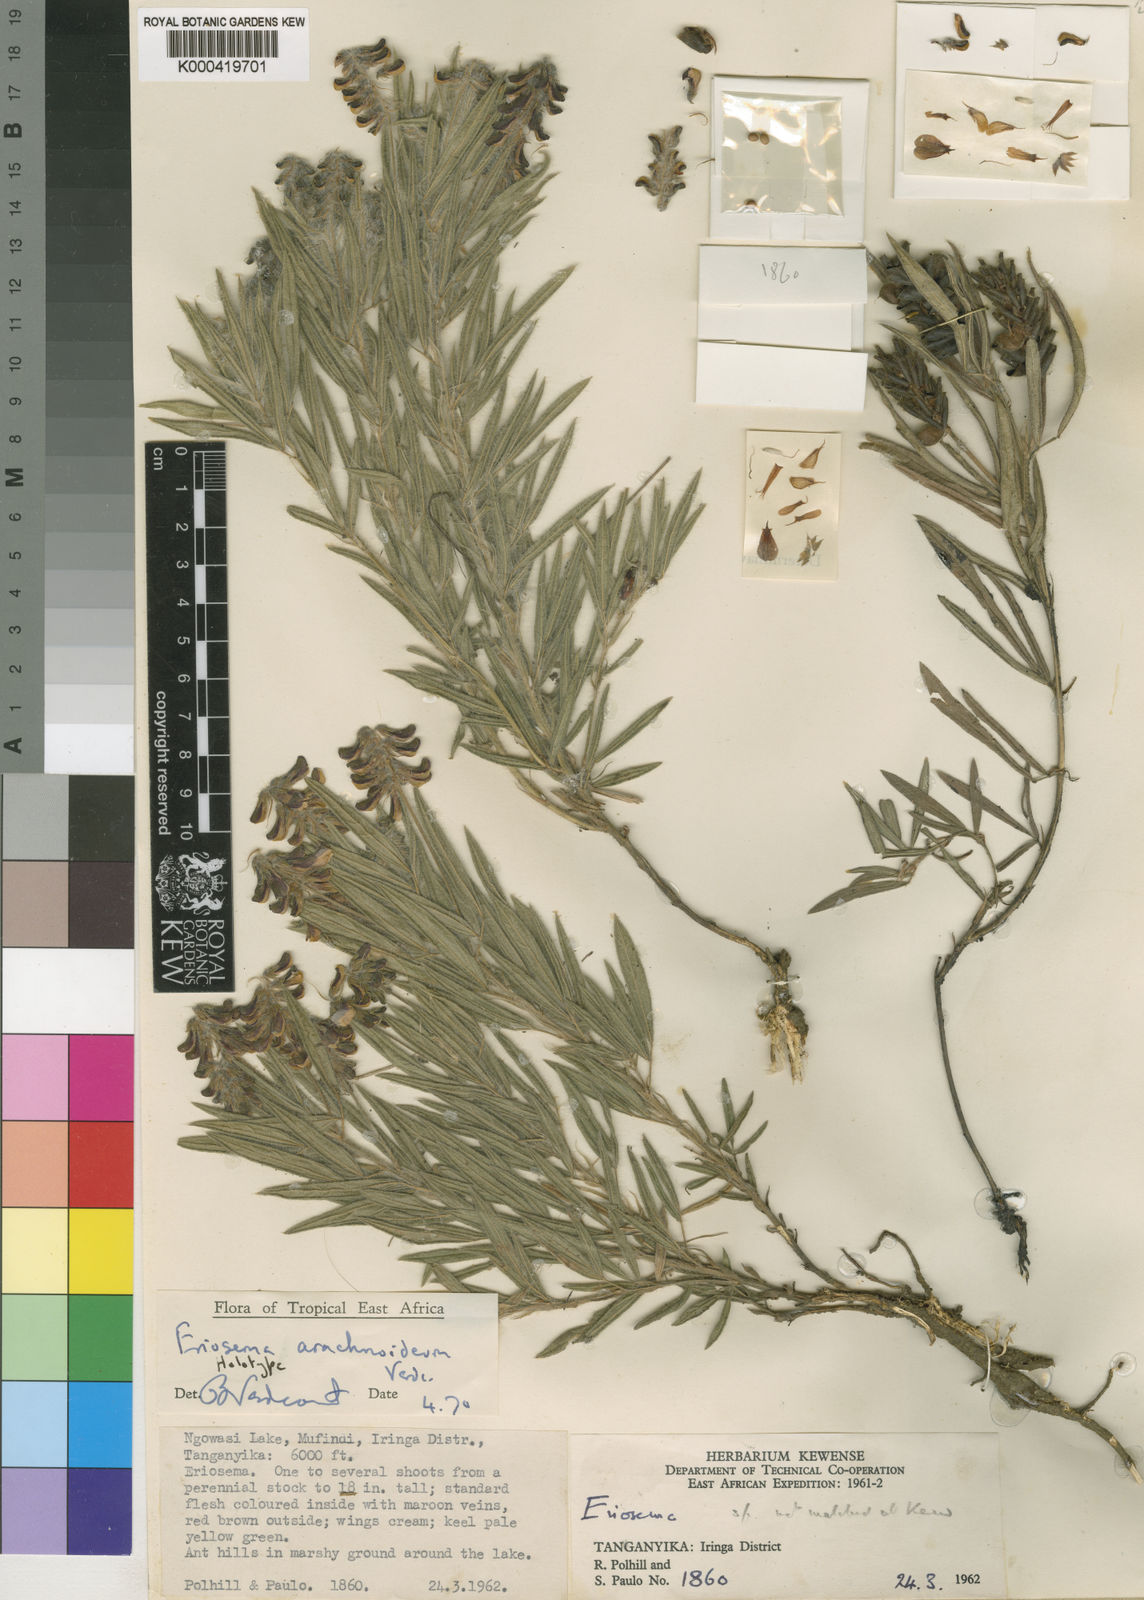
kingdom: Plantae
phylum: Tracheophyta
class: Magnoliopsida
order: Fabales
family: Fabaceae
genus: Eriosema
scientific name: Eriosema arachnoideum
